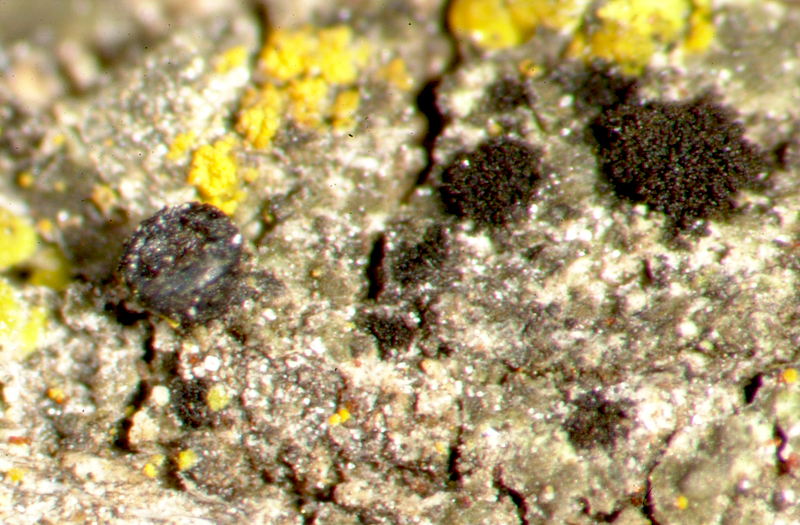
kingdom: Fungi
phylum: Ascomycota
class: Candelariomycetes
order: Candelariales
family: Candelariaceae
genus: Candelaria
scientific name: Candelaria concolor
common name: Candleflame lichen
